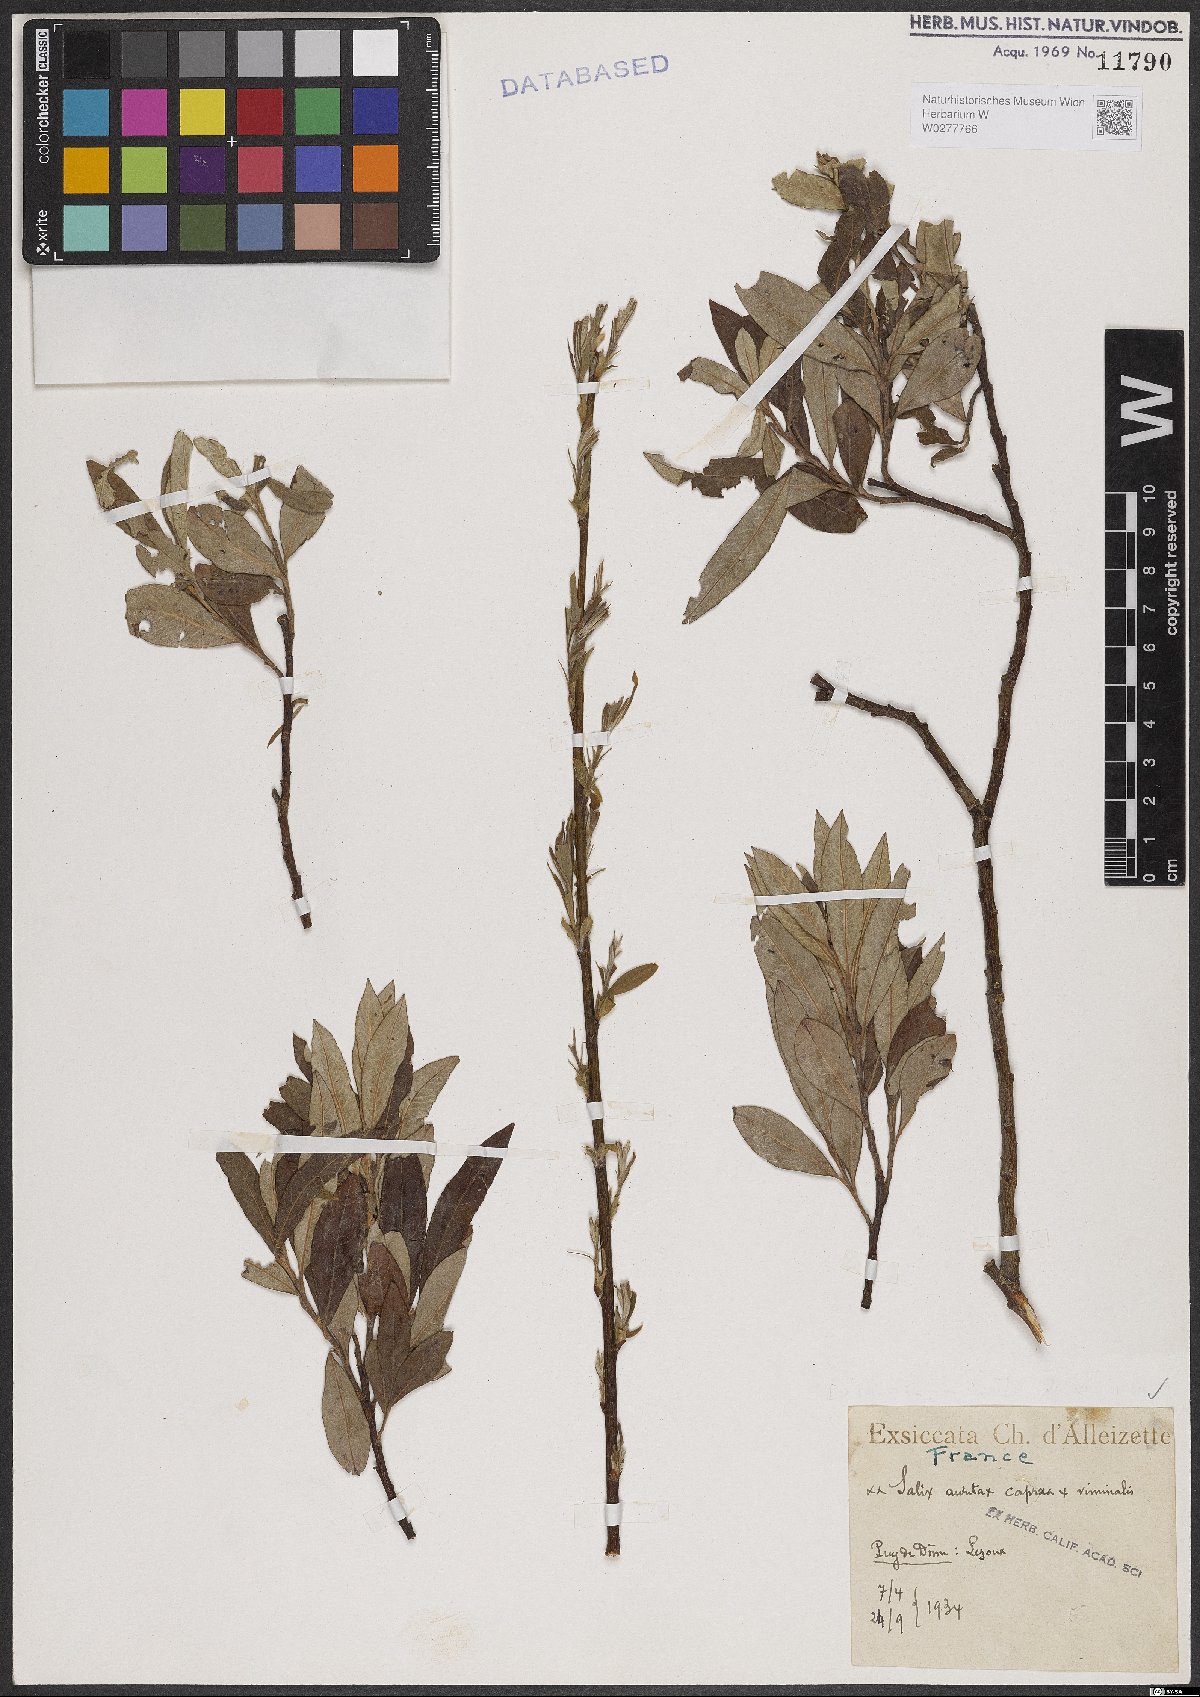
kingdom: Plantae
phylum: Tracheophyta
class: Magnoliopsida
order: Malpighiales
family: Salicaceae
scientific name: Salicaceae
